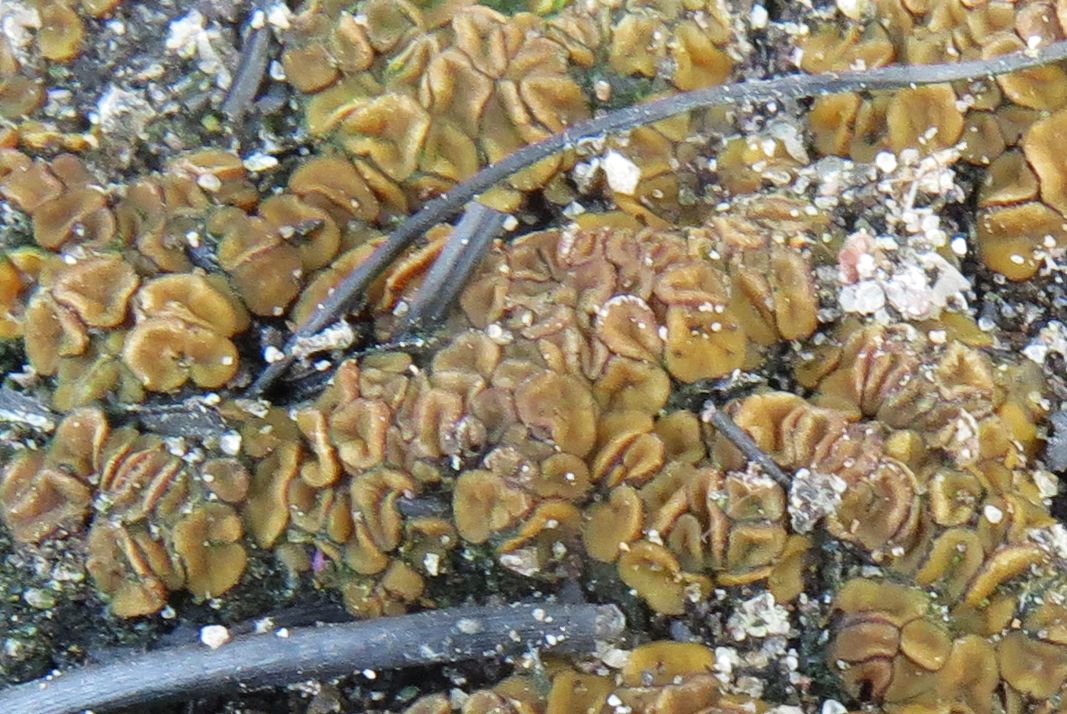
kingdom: Fungi
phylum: Ascomycota
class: Pezizomycetes
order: Pezizales
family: Pyronemataceae
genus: Anthracobia
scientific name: Anthracobia
